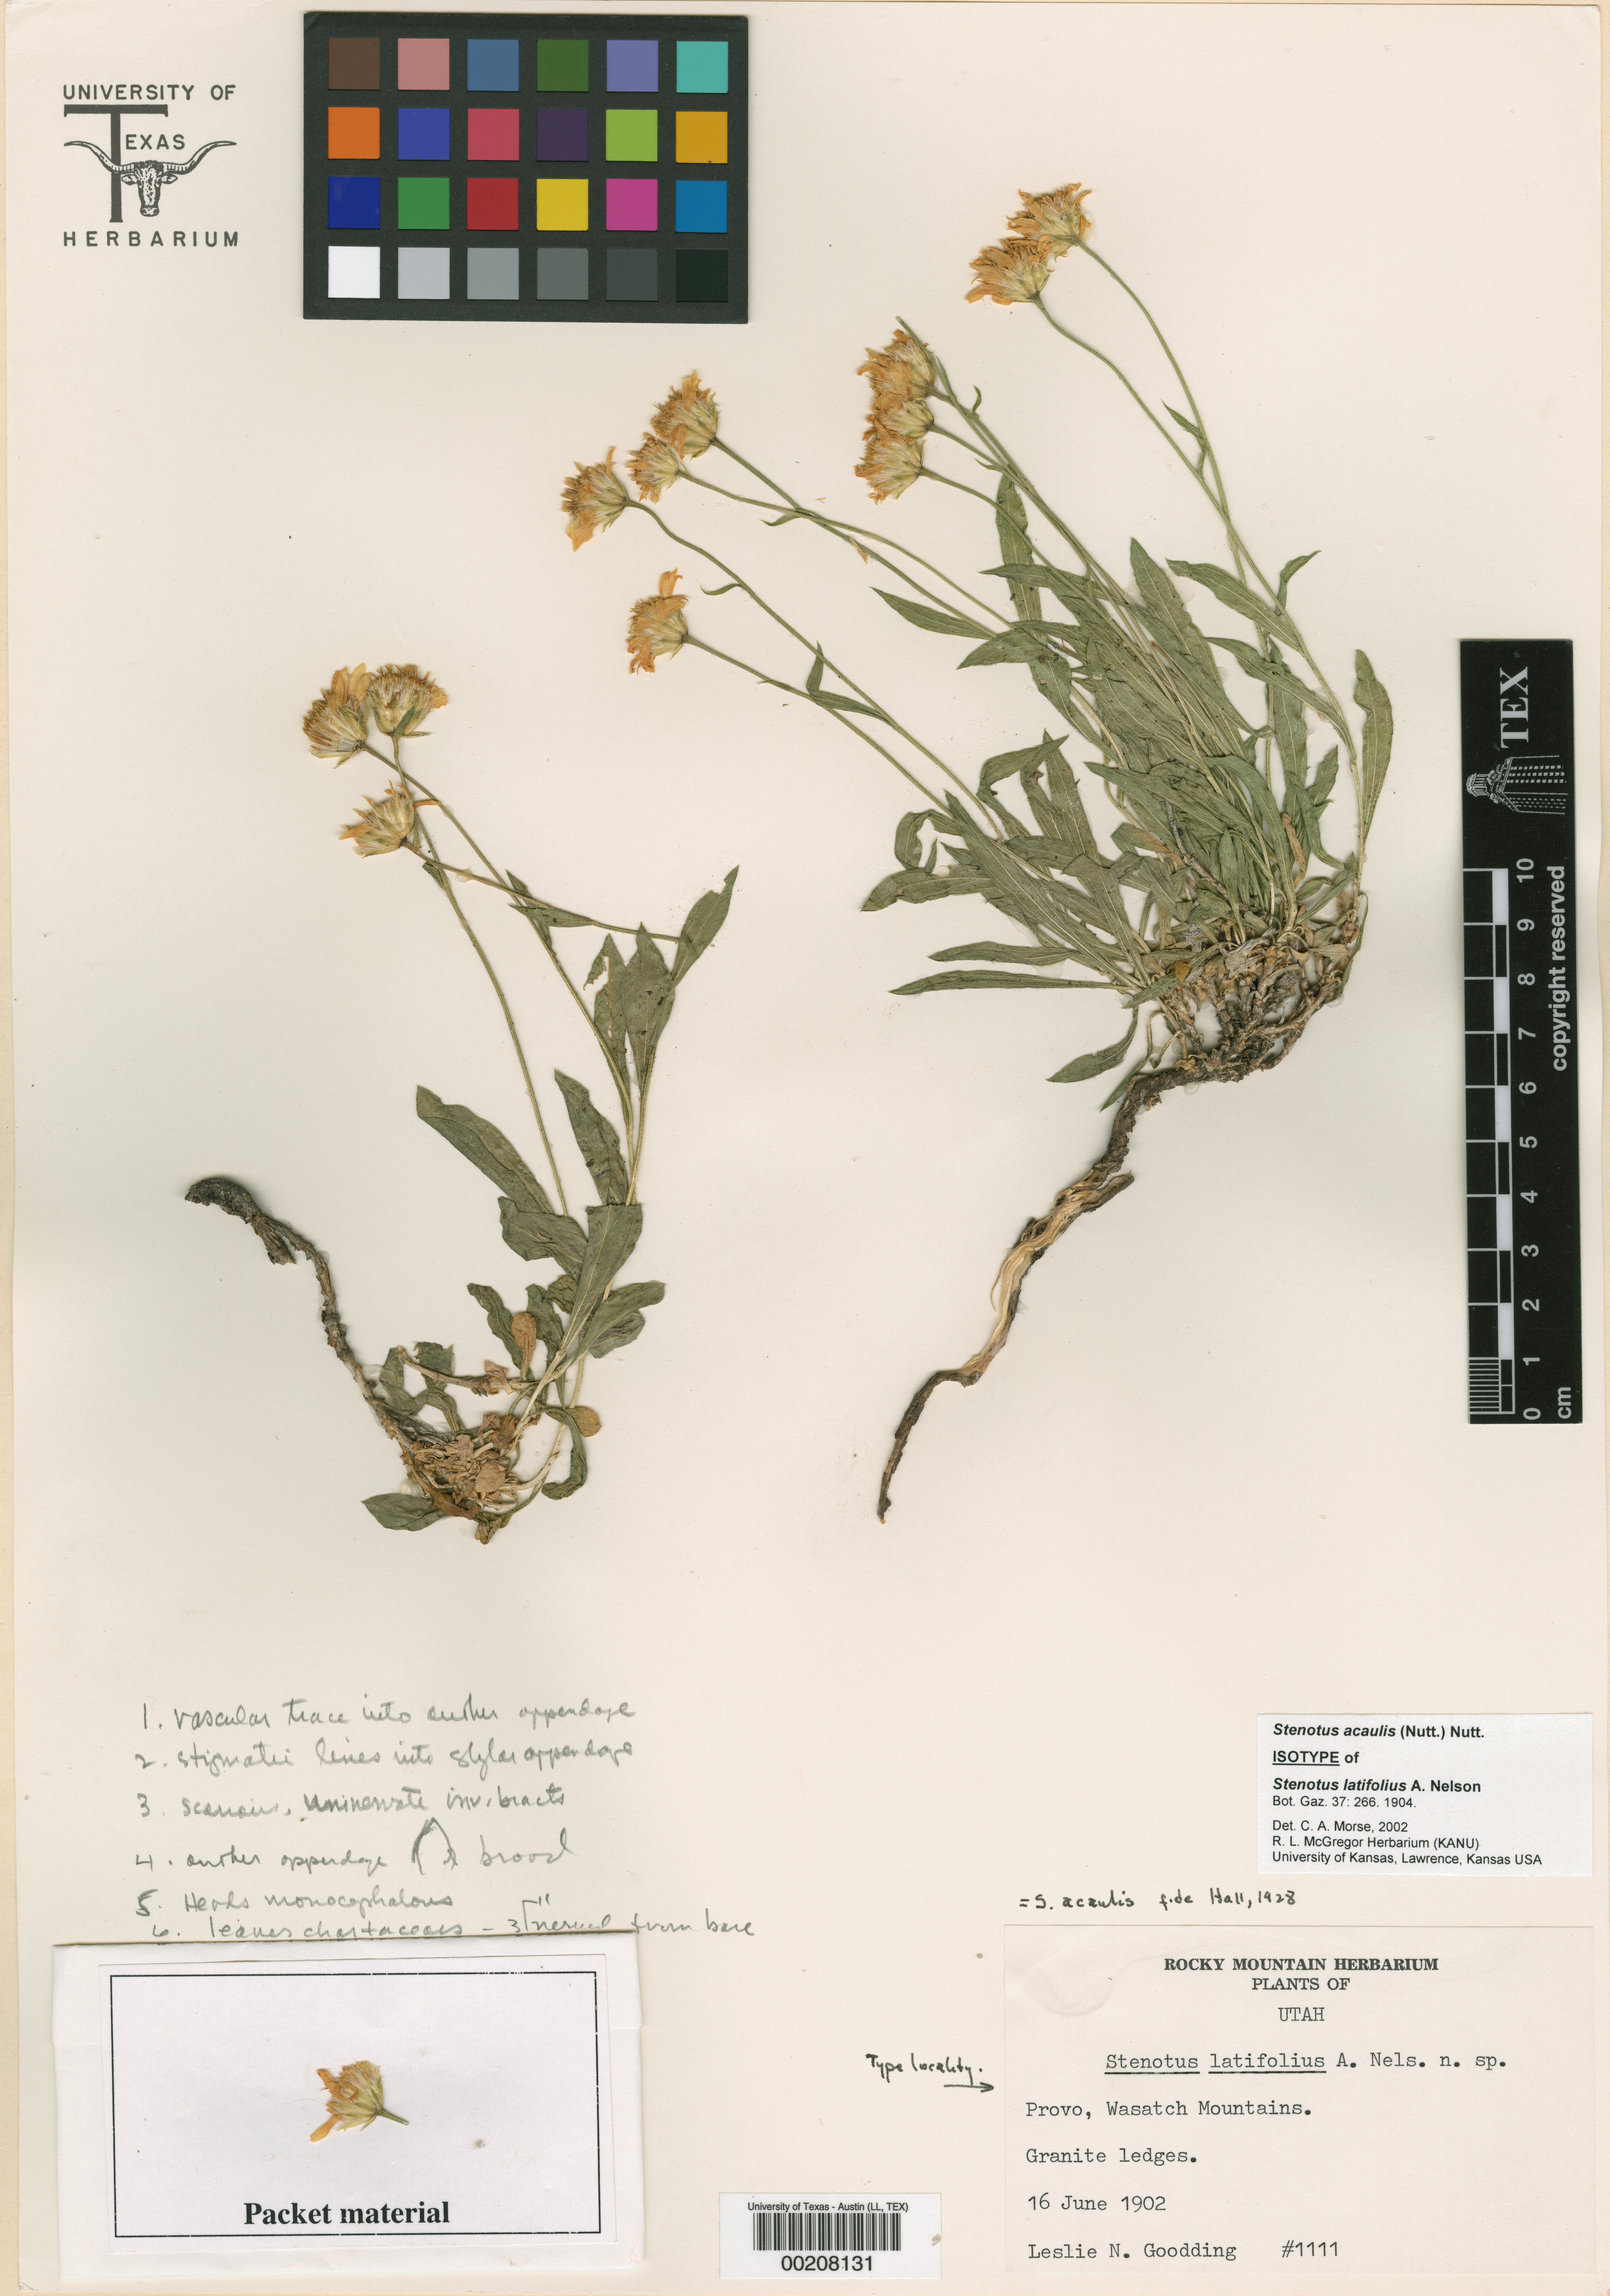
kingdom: Plantae
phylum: Tracheophyta
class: Magnoliopsida
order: Asterales
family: Asteraceae
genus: Stenotus
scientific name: Stenotus acaulis
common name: Stemless goldenweed
